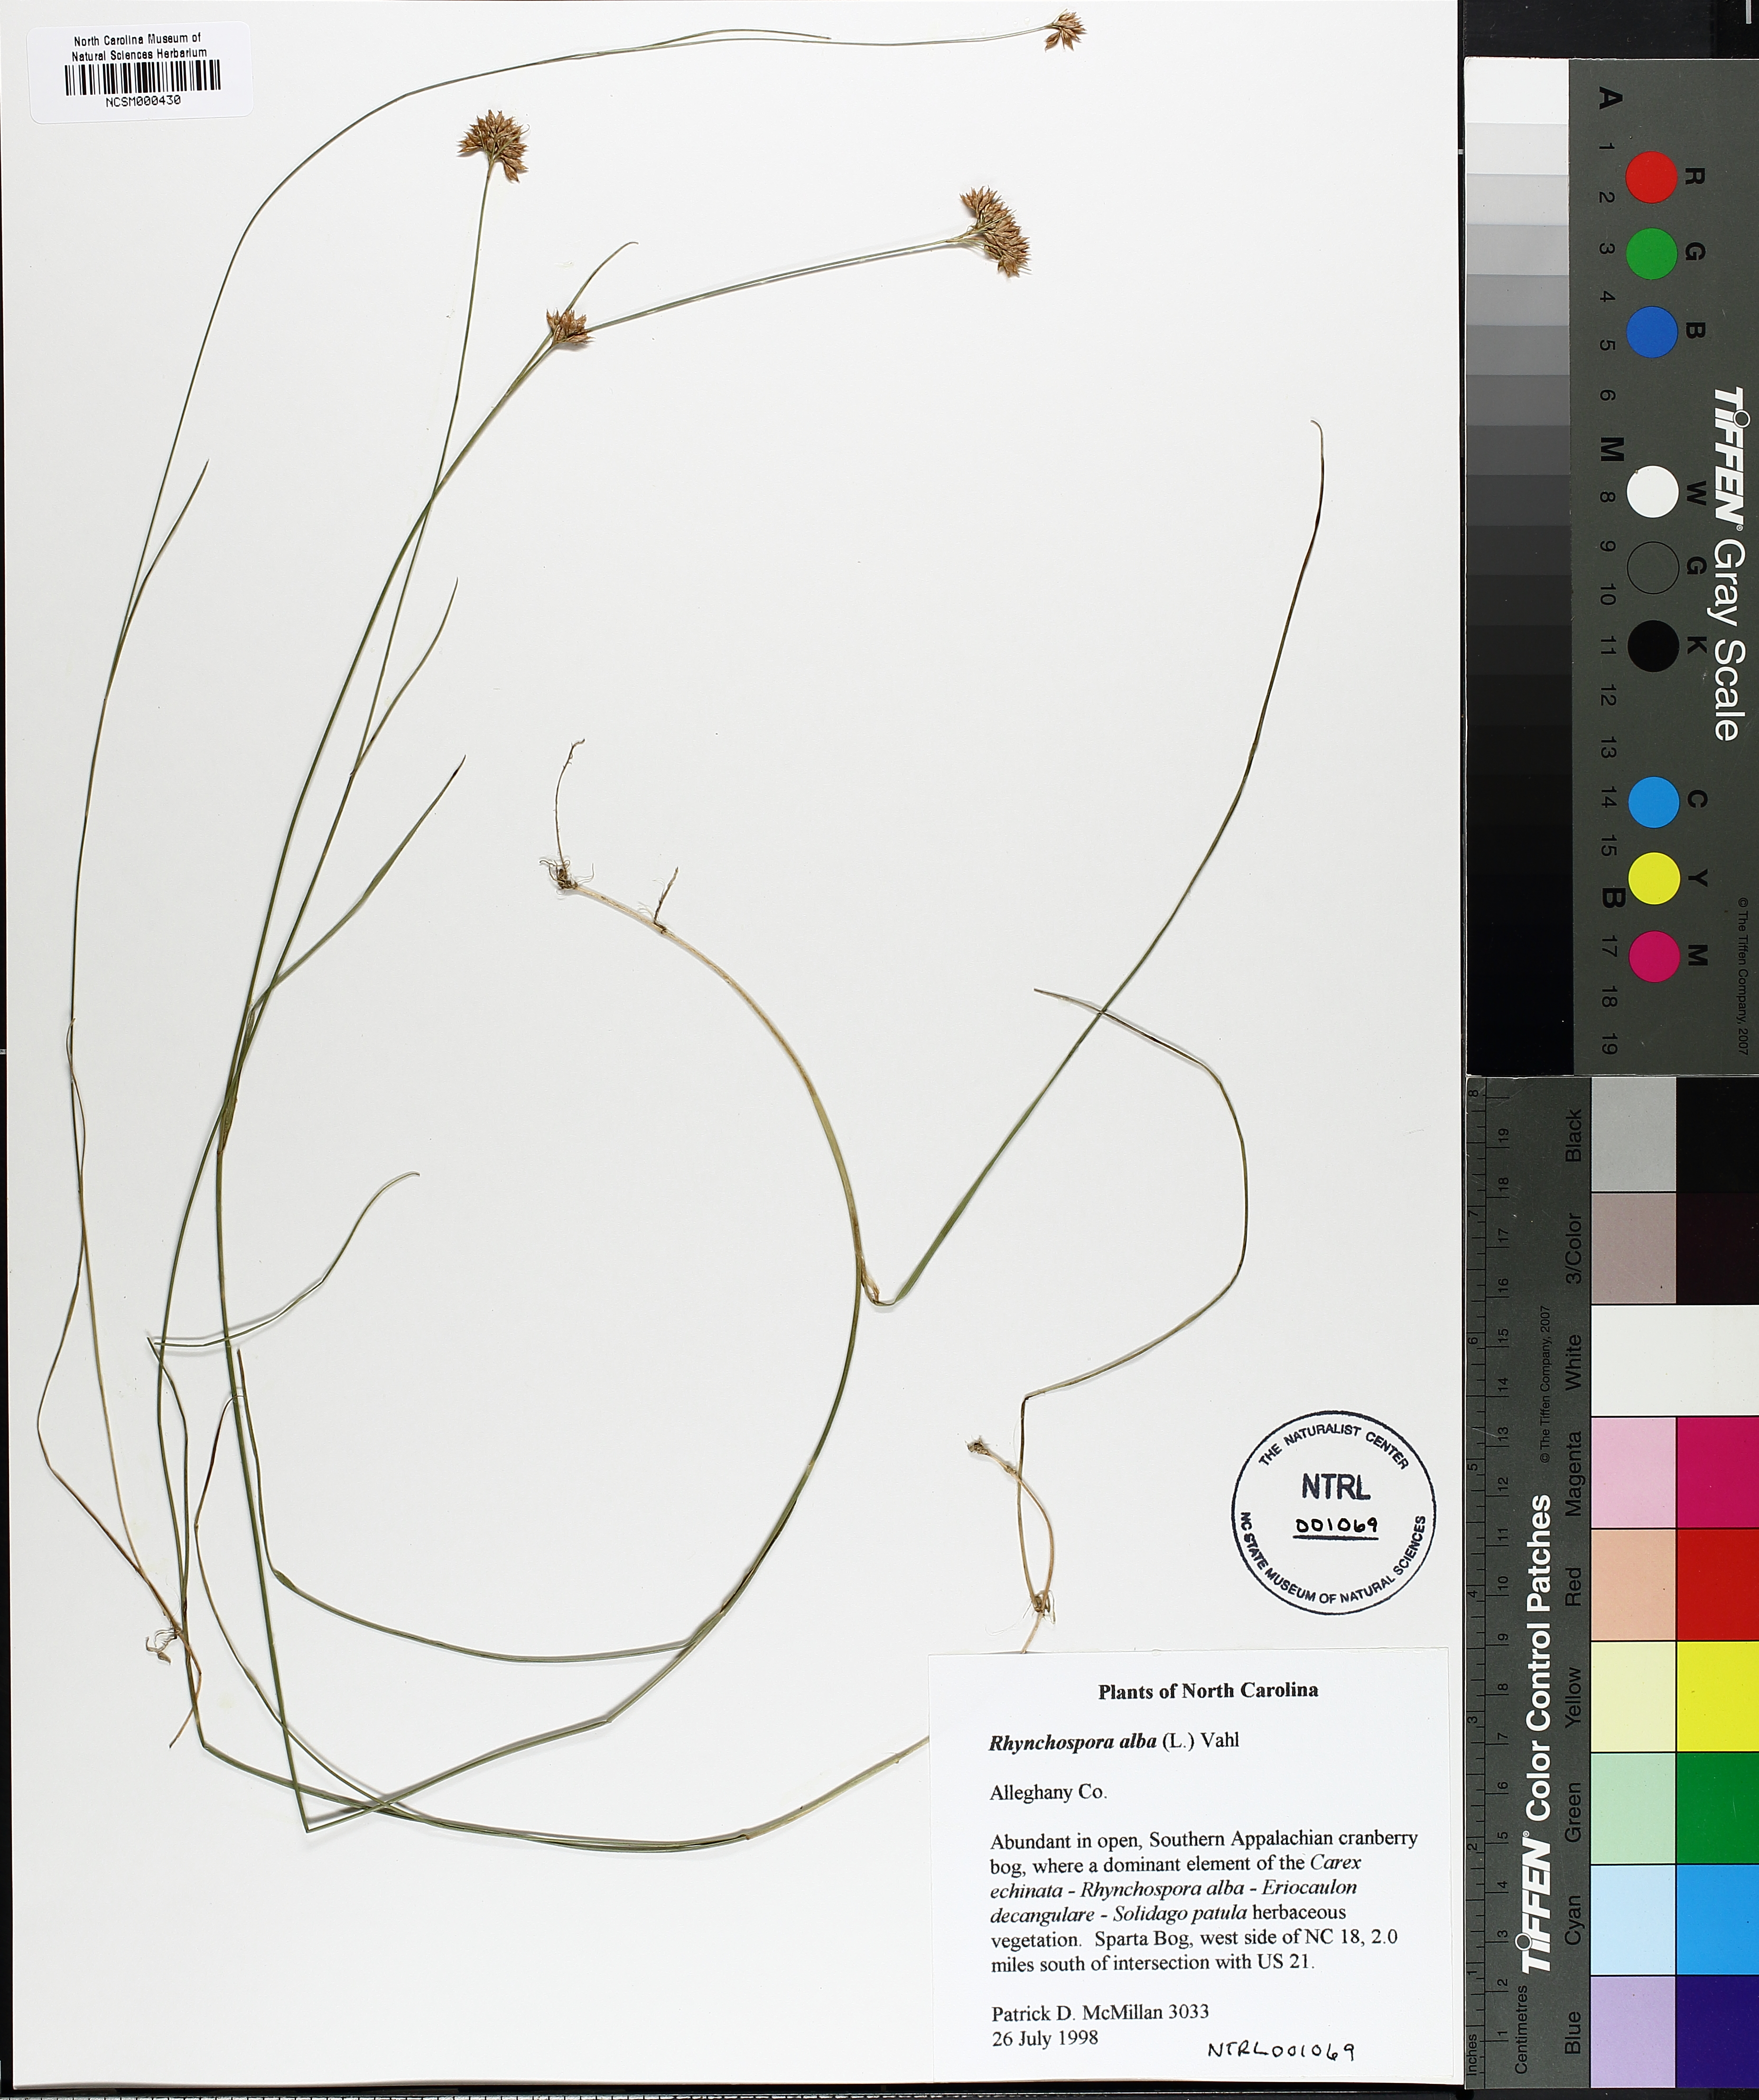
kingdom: Plantae
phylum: Tracheophyta
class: Liliopsida
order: Poales
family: Cyperaceae
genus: Rhynchospora
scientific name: Rhynchospora alba
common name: White beak-sedge
